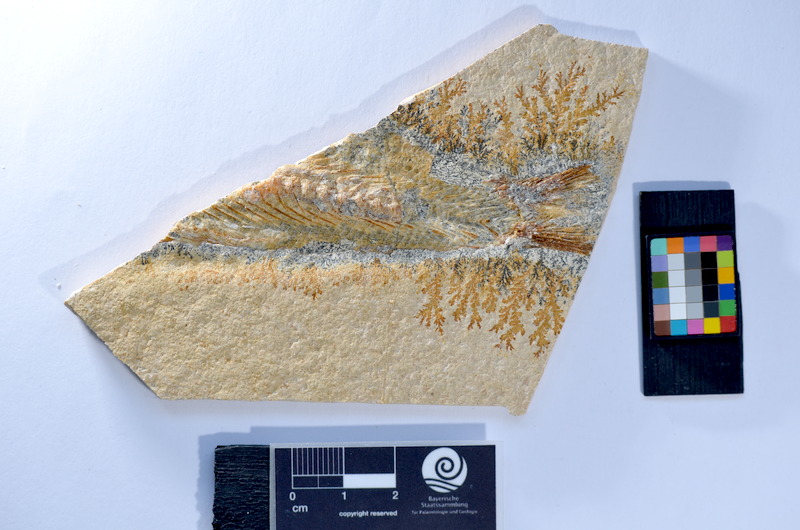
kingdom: Animalia
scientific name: Animalia
